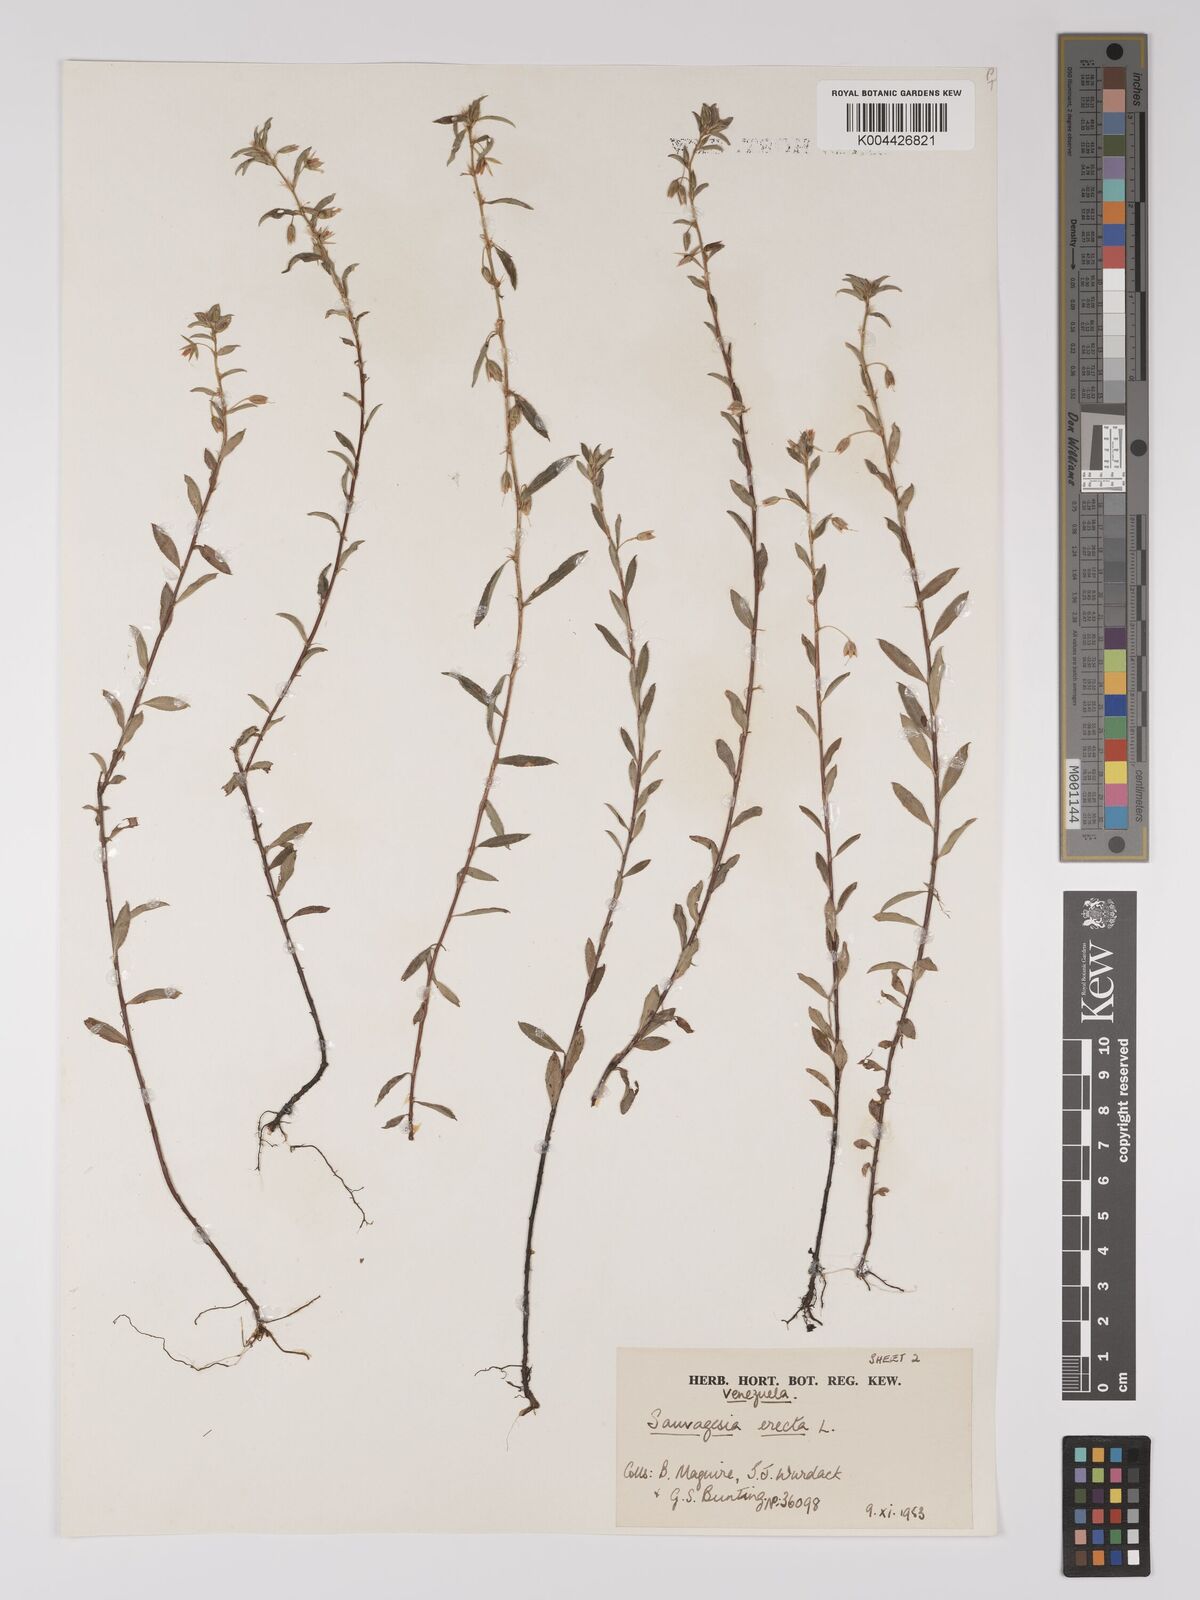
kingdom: Plantae
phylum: Tracheophyta
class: Magnoliopsida
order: Malpighiales
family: Ochnaceae
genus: Sauvagesia
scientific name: Sauvagesia erecta
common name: Creole tea
